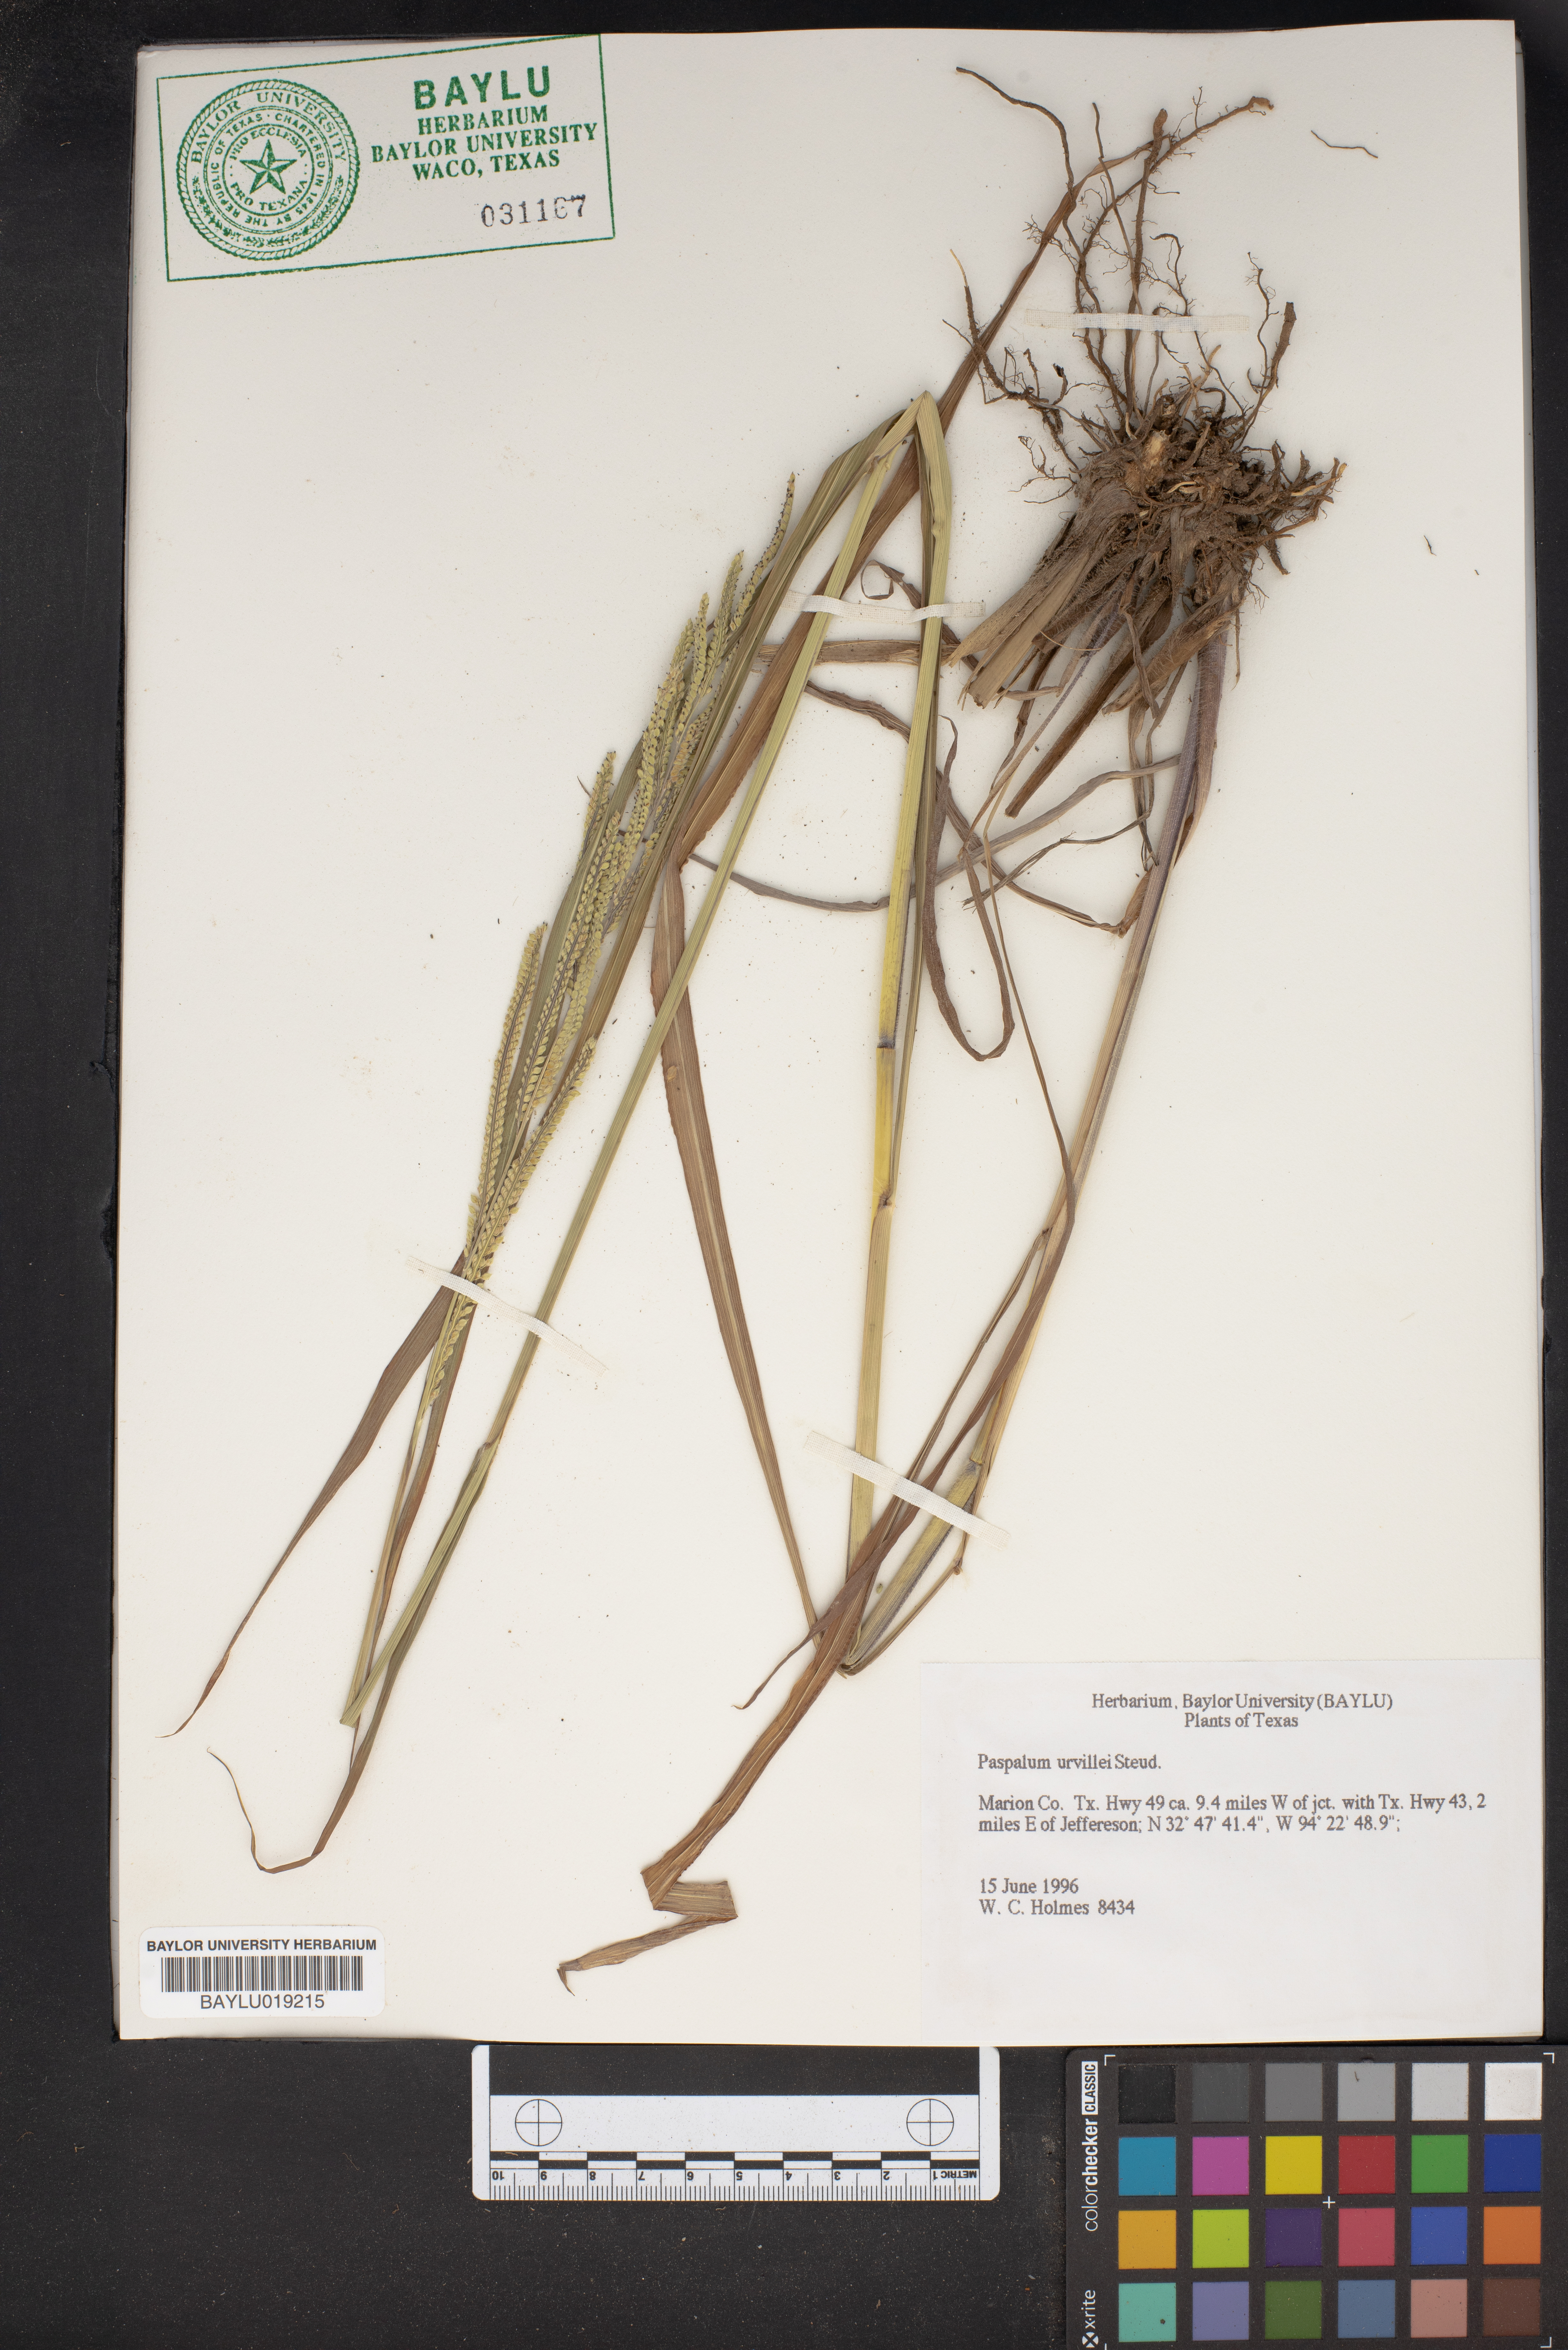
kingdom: Plantae
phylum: Tracheophyta
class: Liliopsida
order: Poales
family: Poaceae
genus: Paspalum
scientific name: Paspalum urvillei
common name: Vasey's grass
